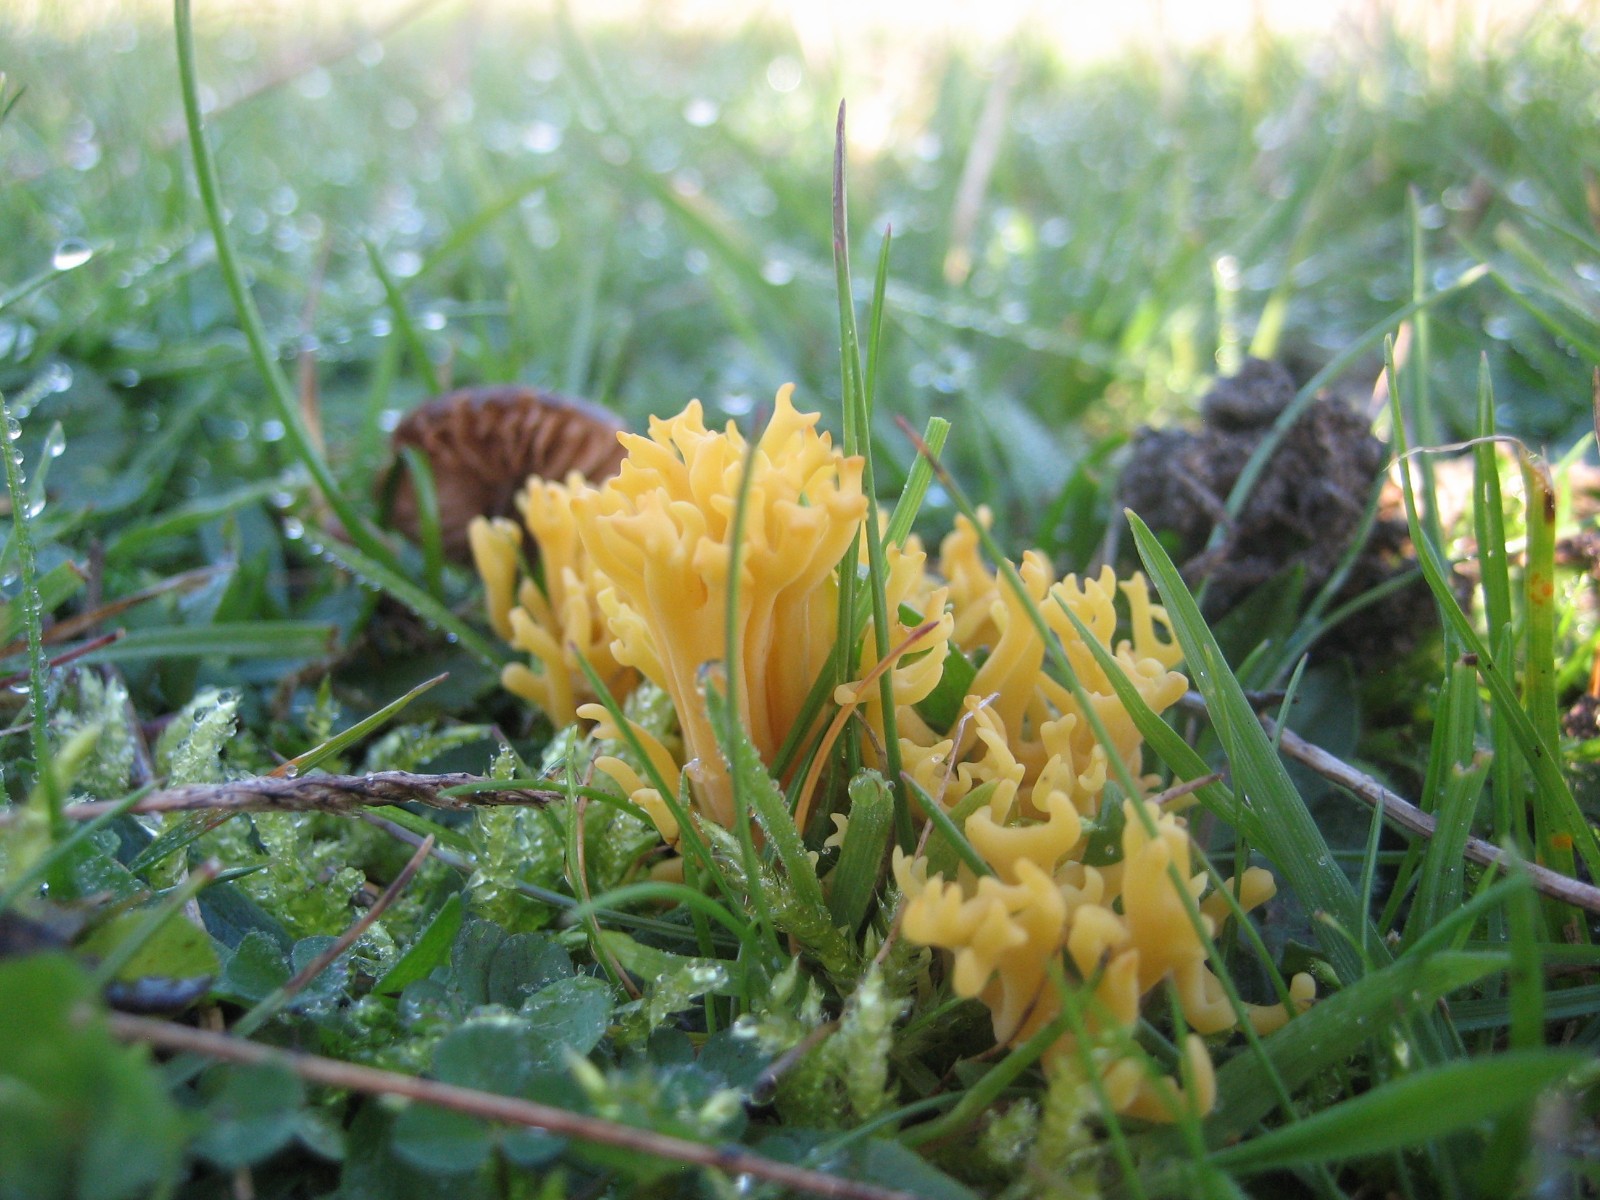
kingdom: Fungi
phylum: Basidiomycota
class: Agaricomycetes
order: Agaricales
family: Clavariaceae
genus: Clavulinopsis
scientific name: Clavulinopsis corniculata
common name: eng-køllesvamp
